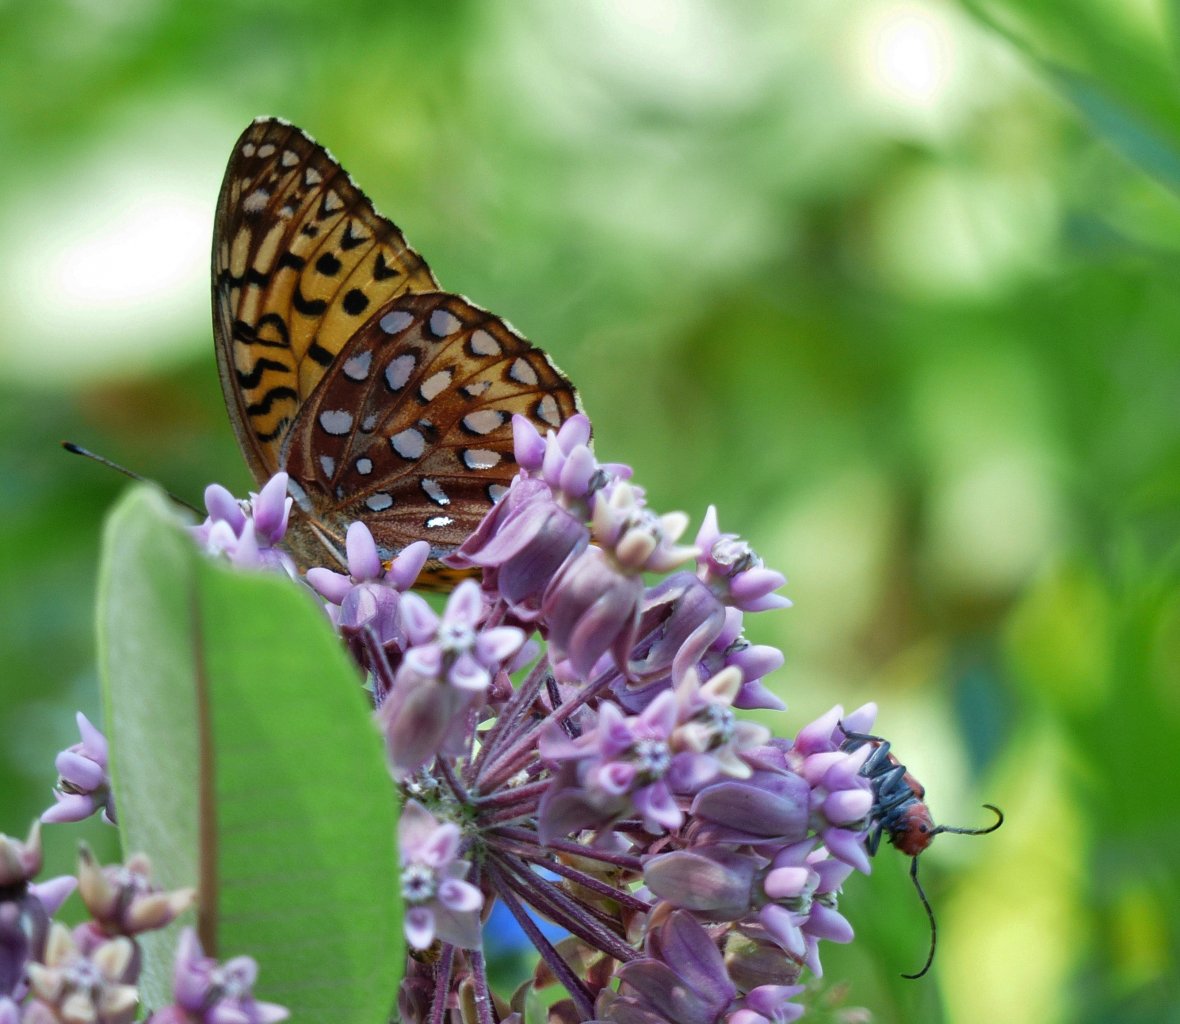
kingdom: Animalia
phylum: Arthropoda
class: Insecta
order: Lepidoptera
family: Nymphalidae
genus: Speyeria
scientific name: Speyeria aphrodite
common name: Aphrodite Fritillary
